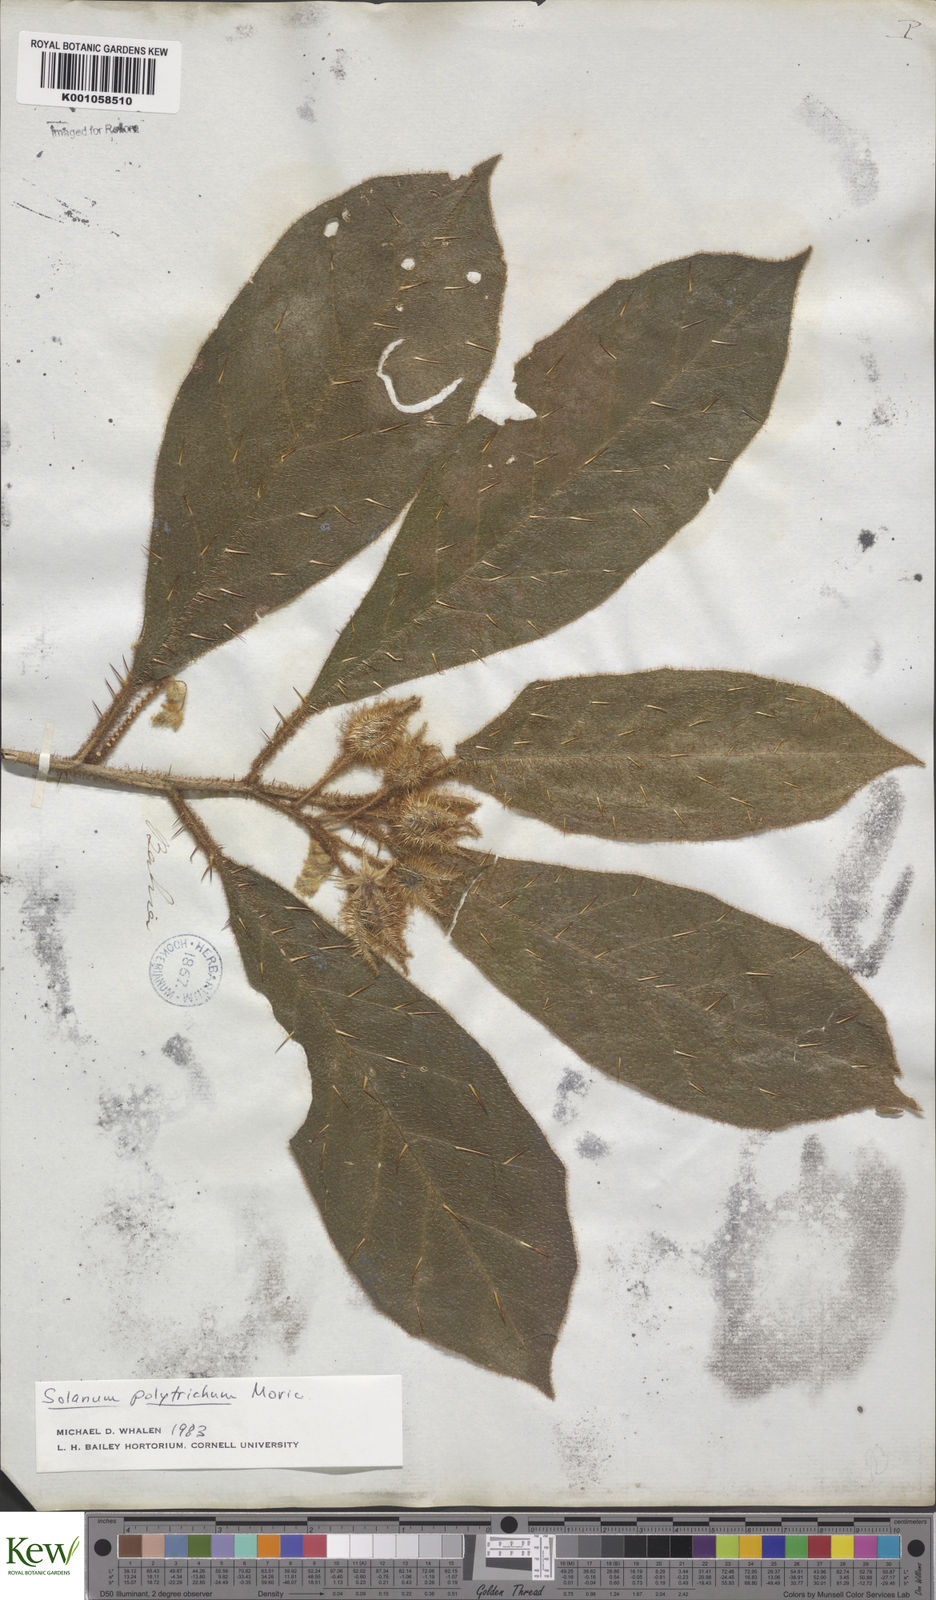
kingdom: Plantae
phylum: Tracheophyta
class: Magnoliopsida
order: Solanales
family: Solanaceae
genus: Solanum
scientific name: Solanum polytrichum
